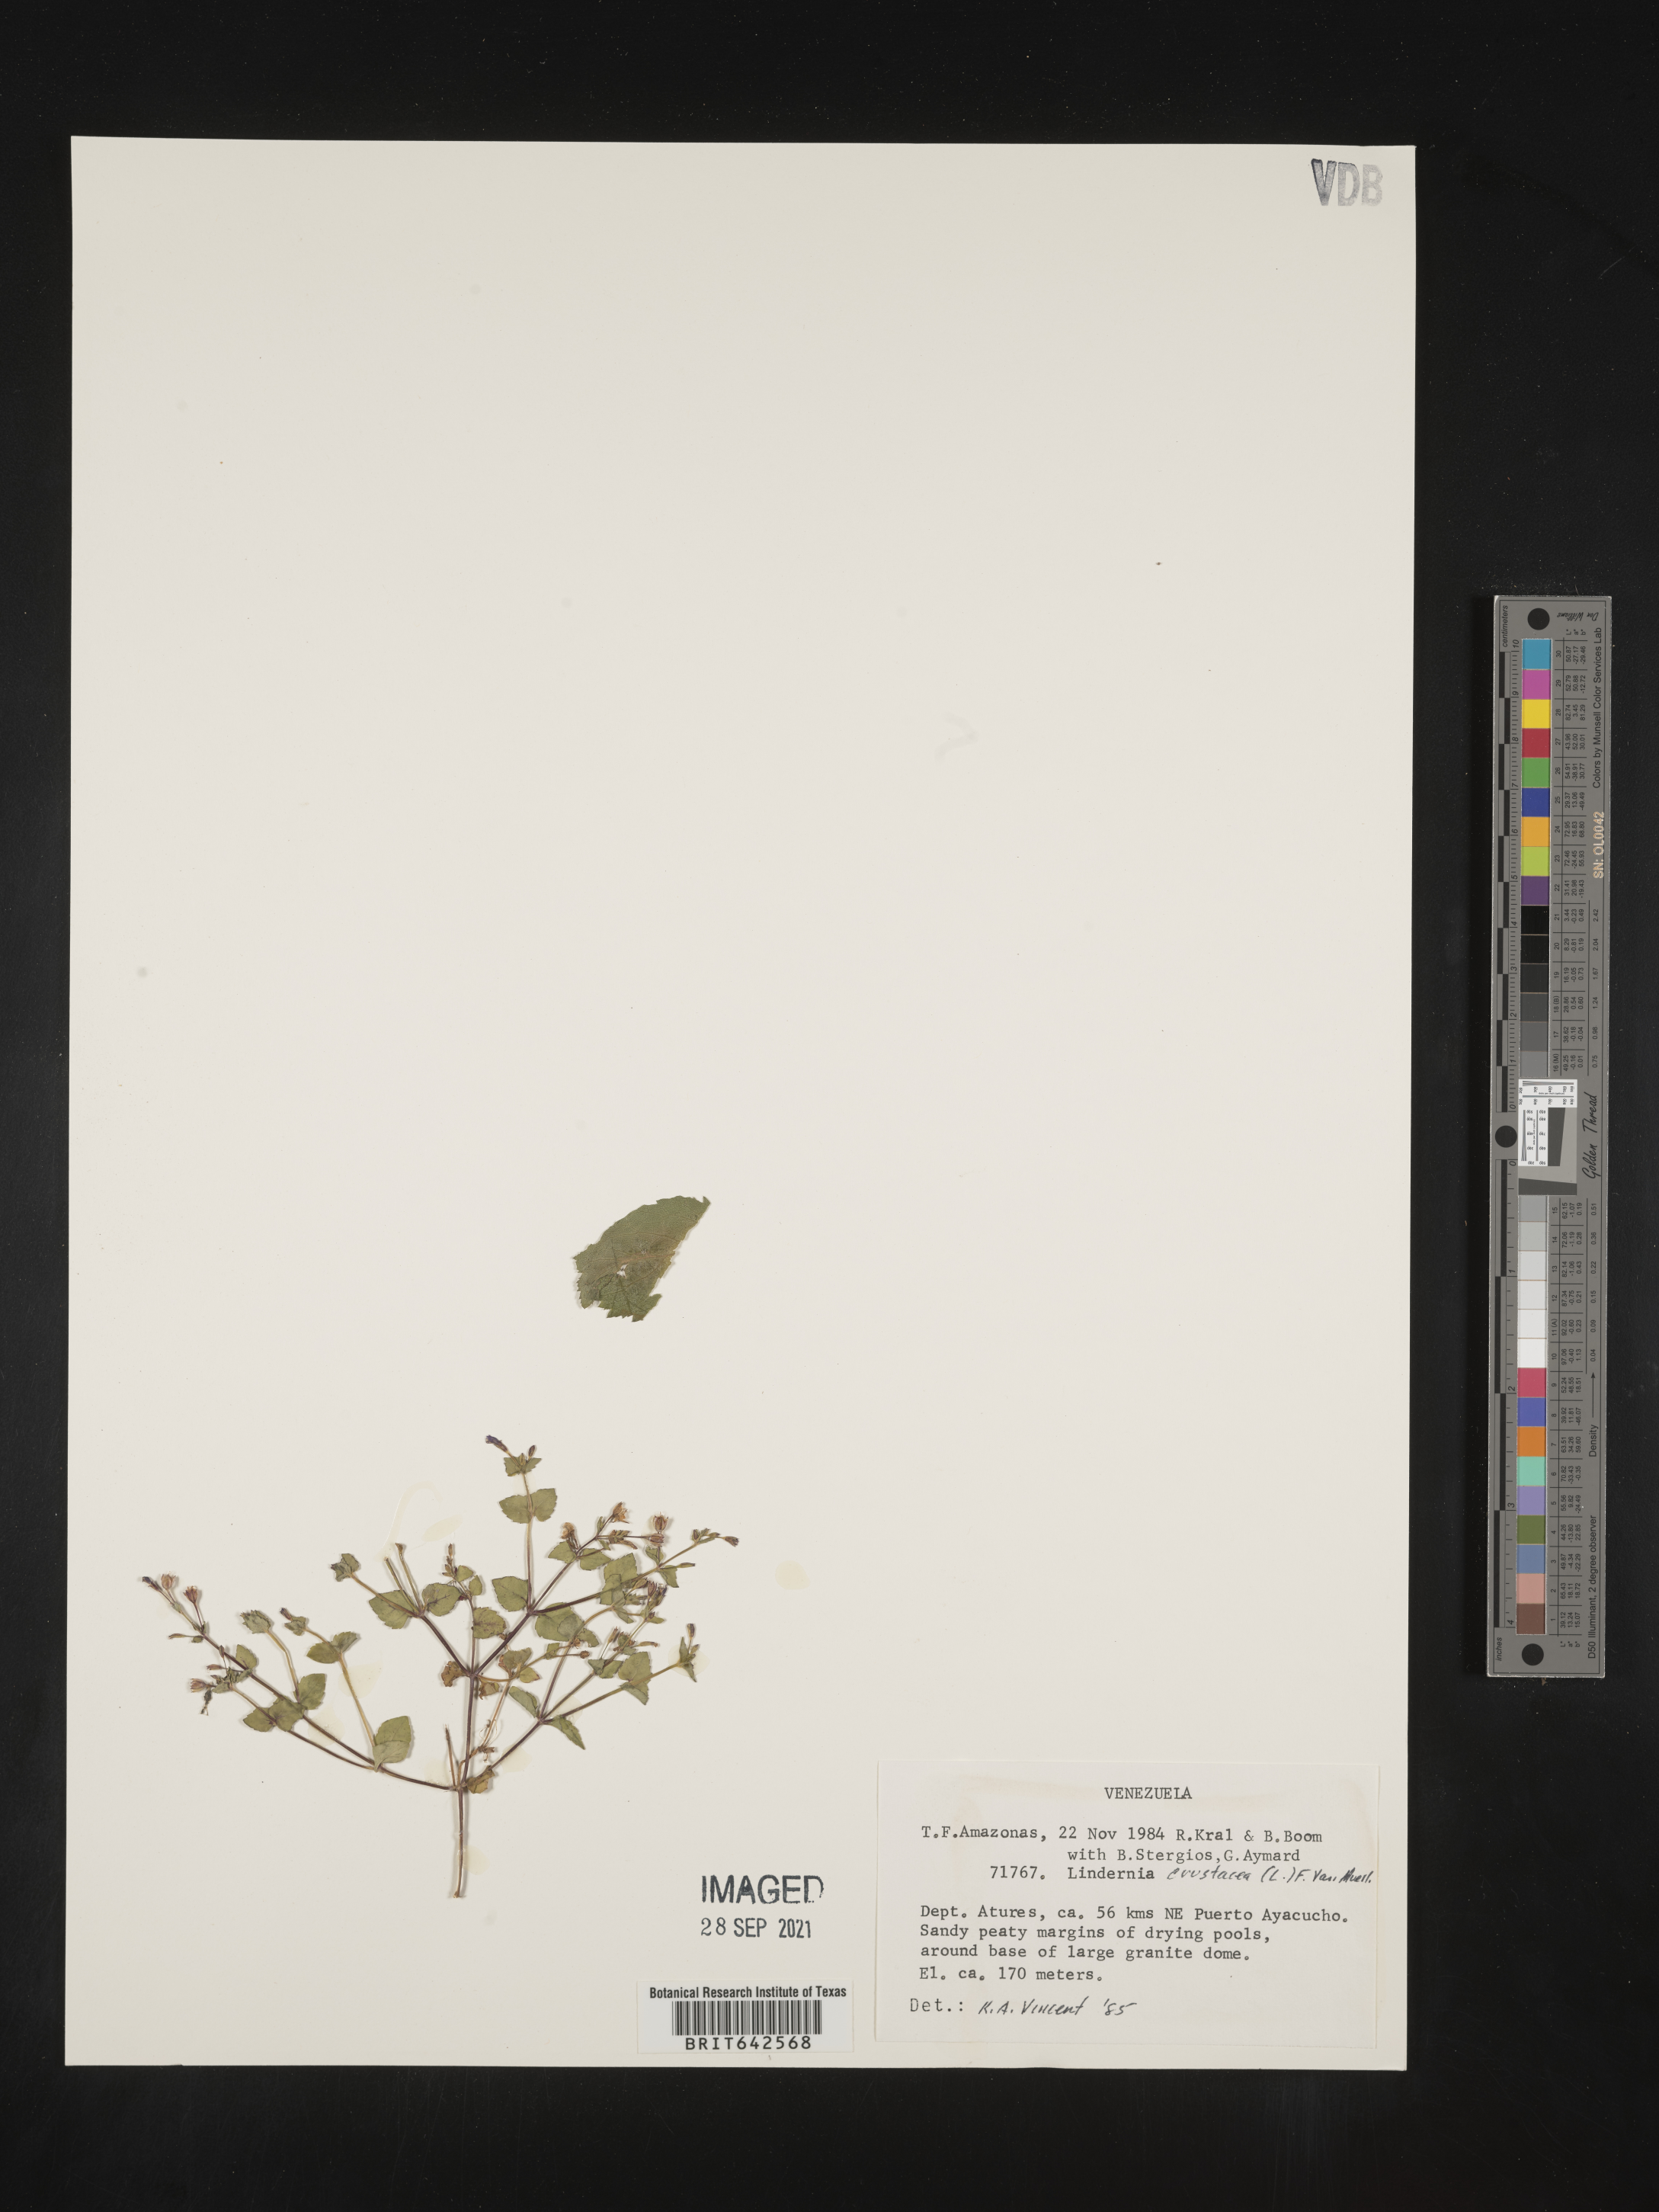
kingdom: Plantae
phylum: Tracheophyta
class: Magnoliopsida
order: Lamiales
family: Linderniaceae
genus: Lindernia
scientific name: Lindernia
